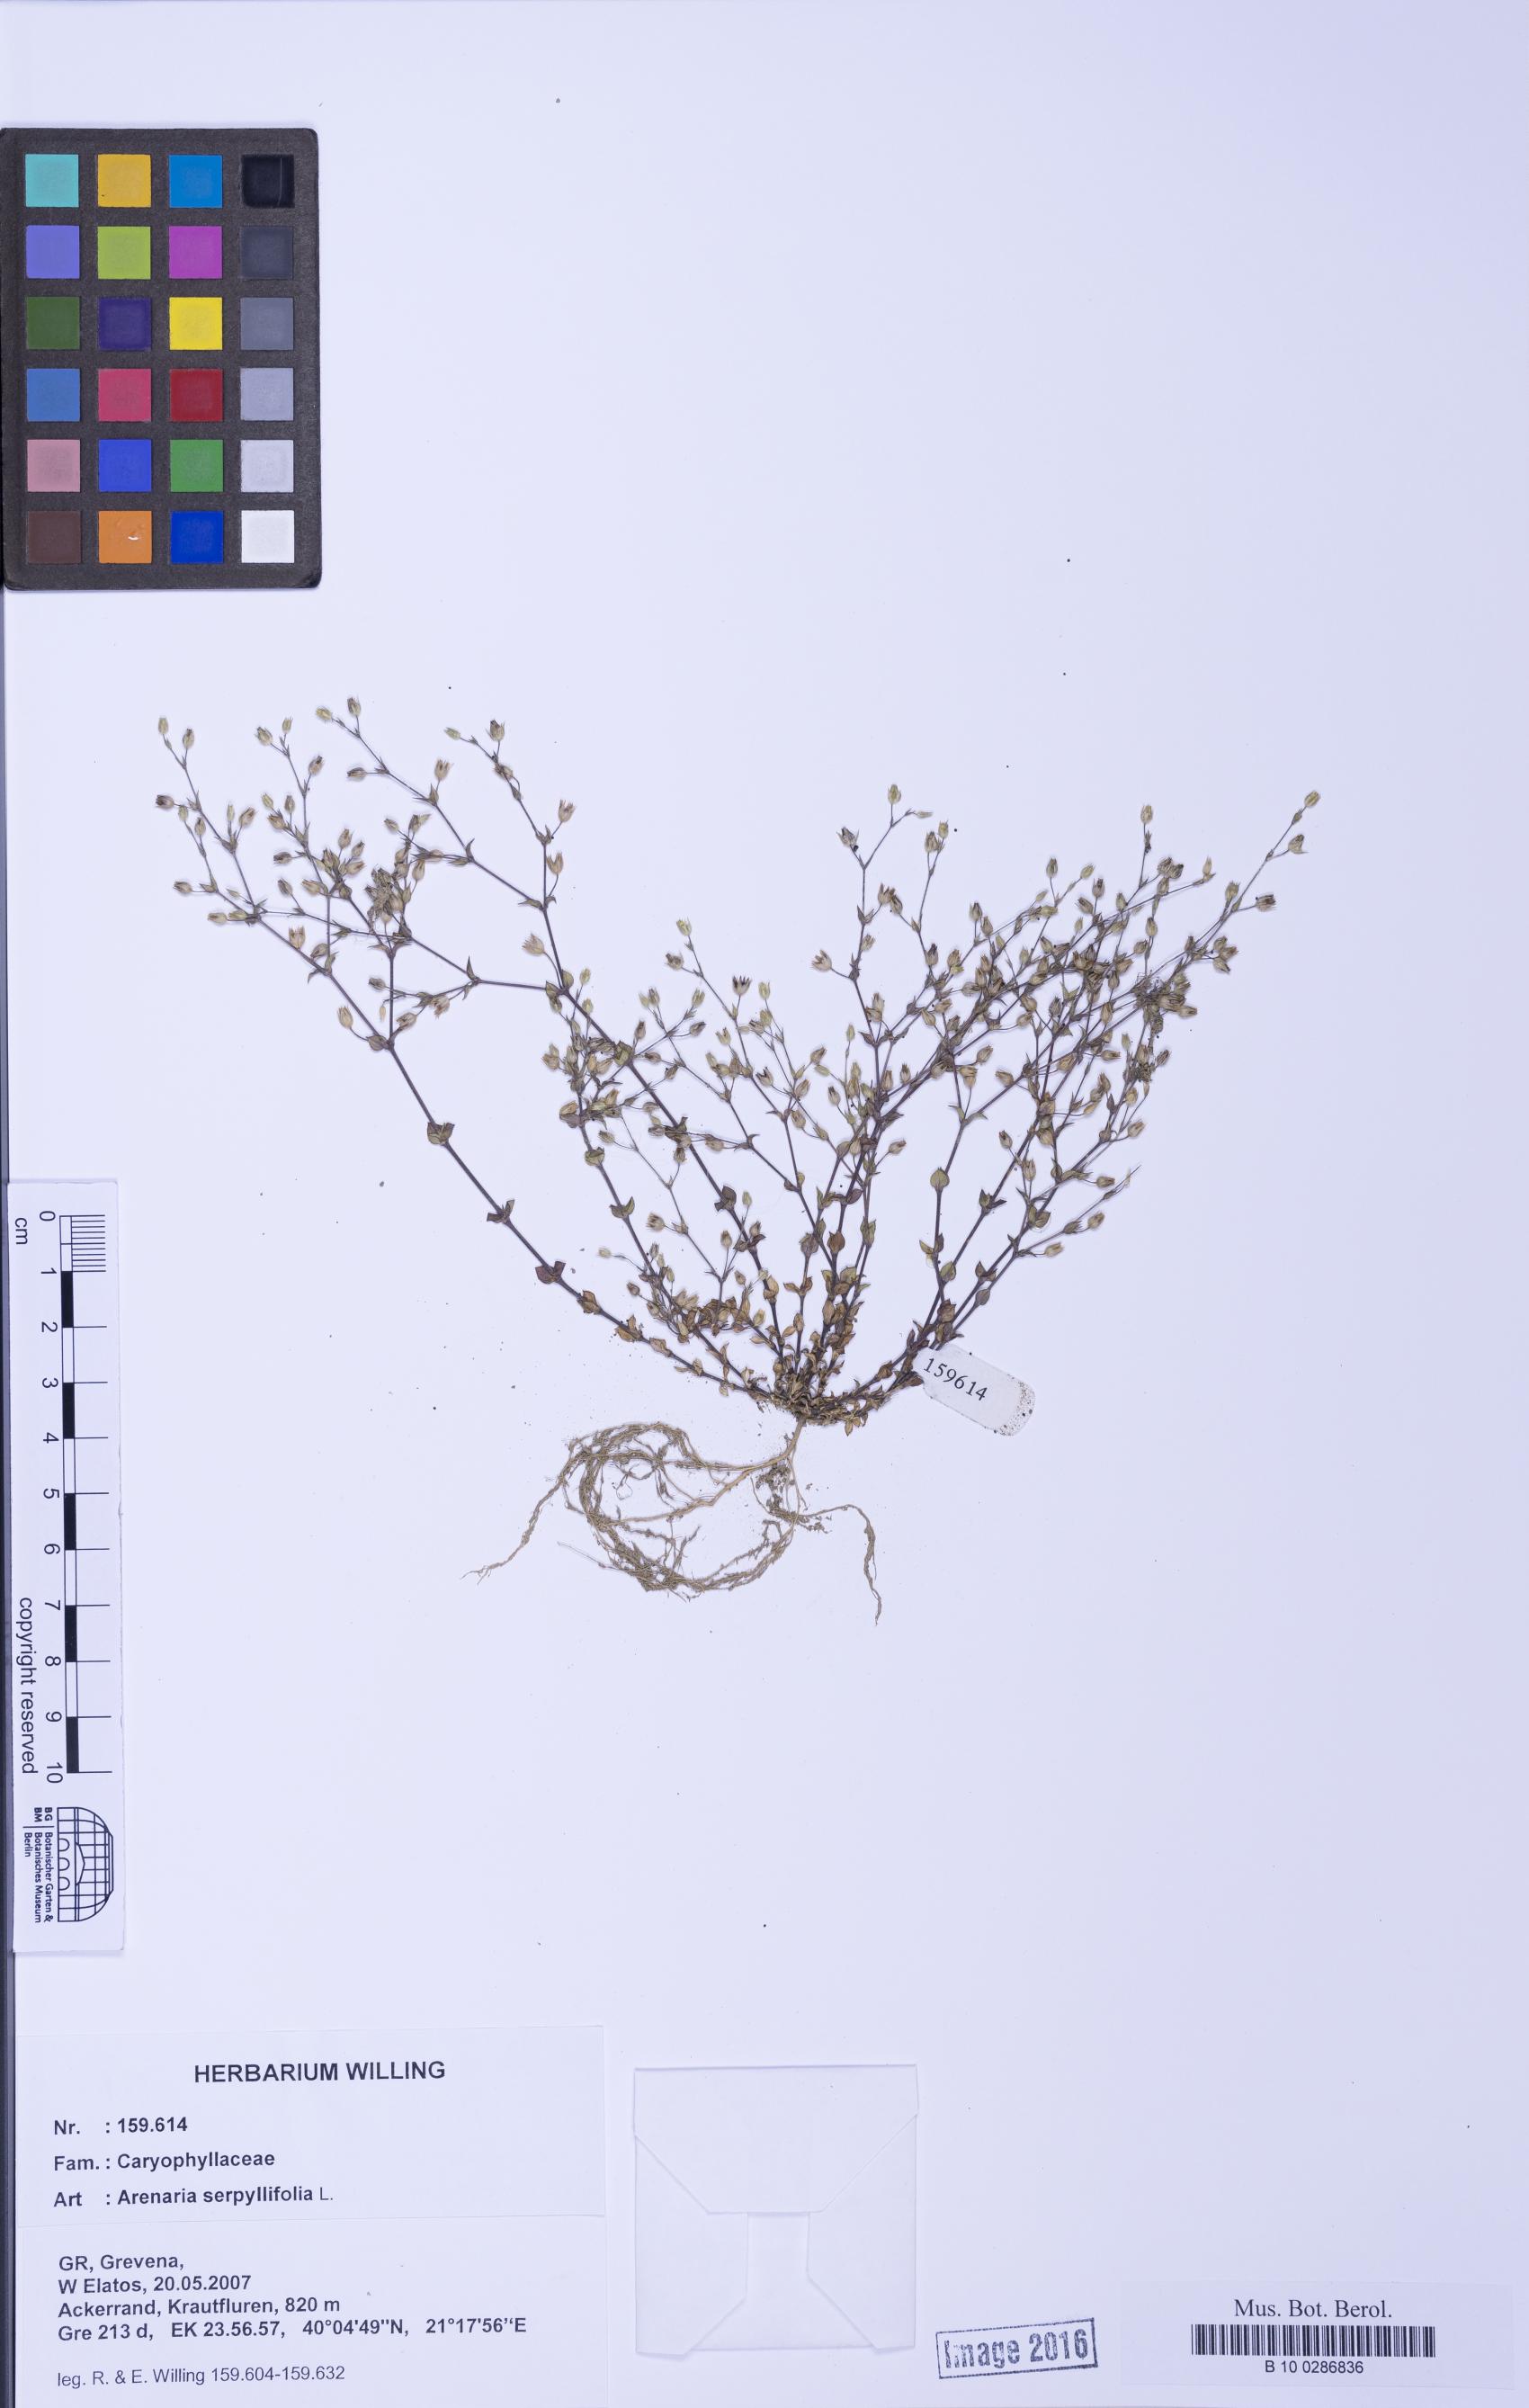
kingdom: Plantae
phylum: Tracheophyta
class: Magnoliopsida
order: Caryophyllales
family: Caryophyllaceae
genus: Arenaria
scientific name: Arenaria serpyllifolia
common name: Thyme-leaved sandwort
